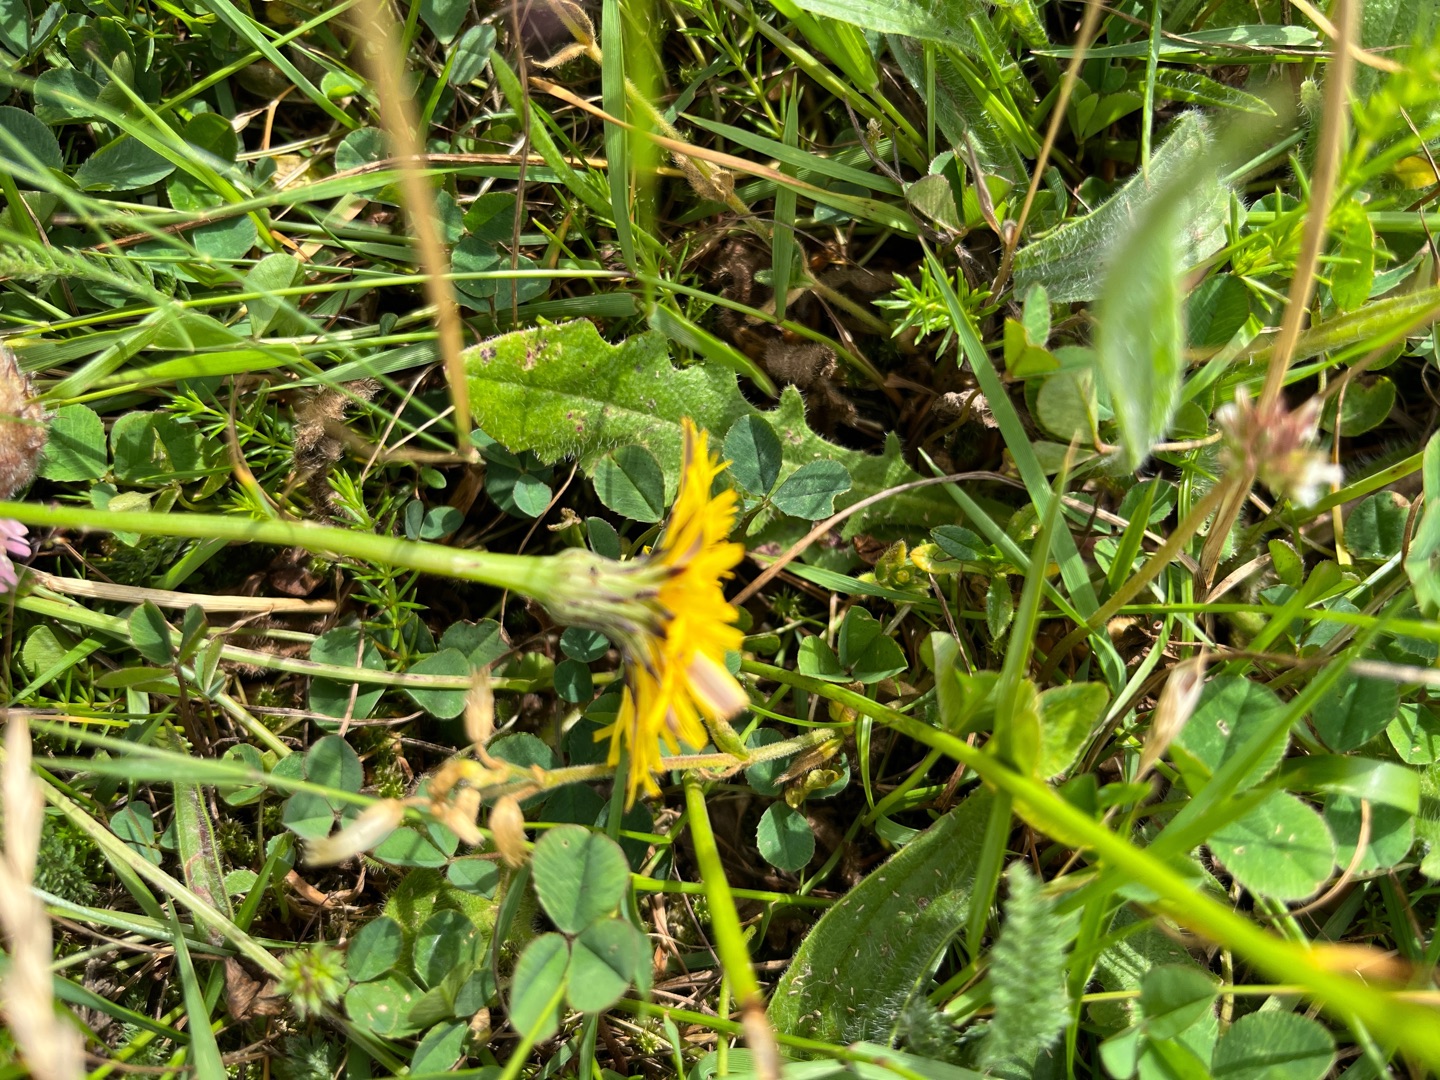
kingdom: Plantae
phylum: Tracheophyta
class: Magnoliopsida
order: Asterales
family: Asteraceae
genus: Hypochaeris
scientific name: Hypochaeris radicata
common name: Almindelig kongepen
